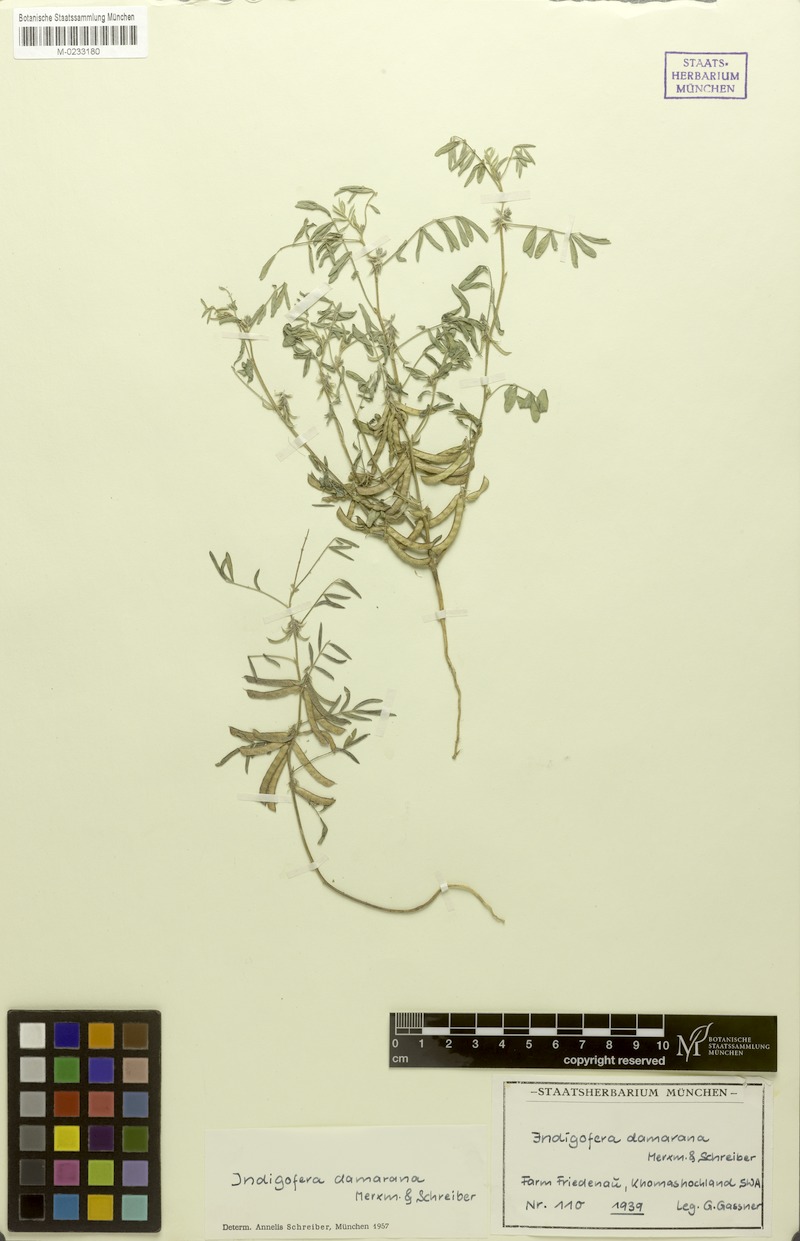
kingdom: Plantae
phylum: Tracheophyta
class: Magnoliopsida
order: Fabales
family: Fabaceae
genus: Indigofera
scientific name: Indigofera damarana
